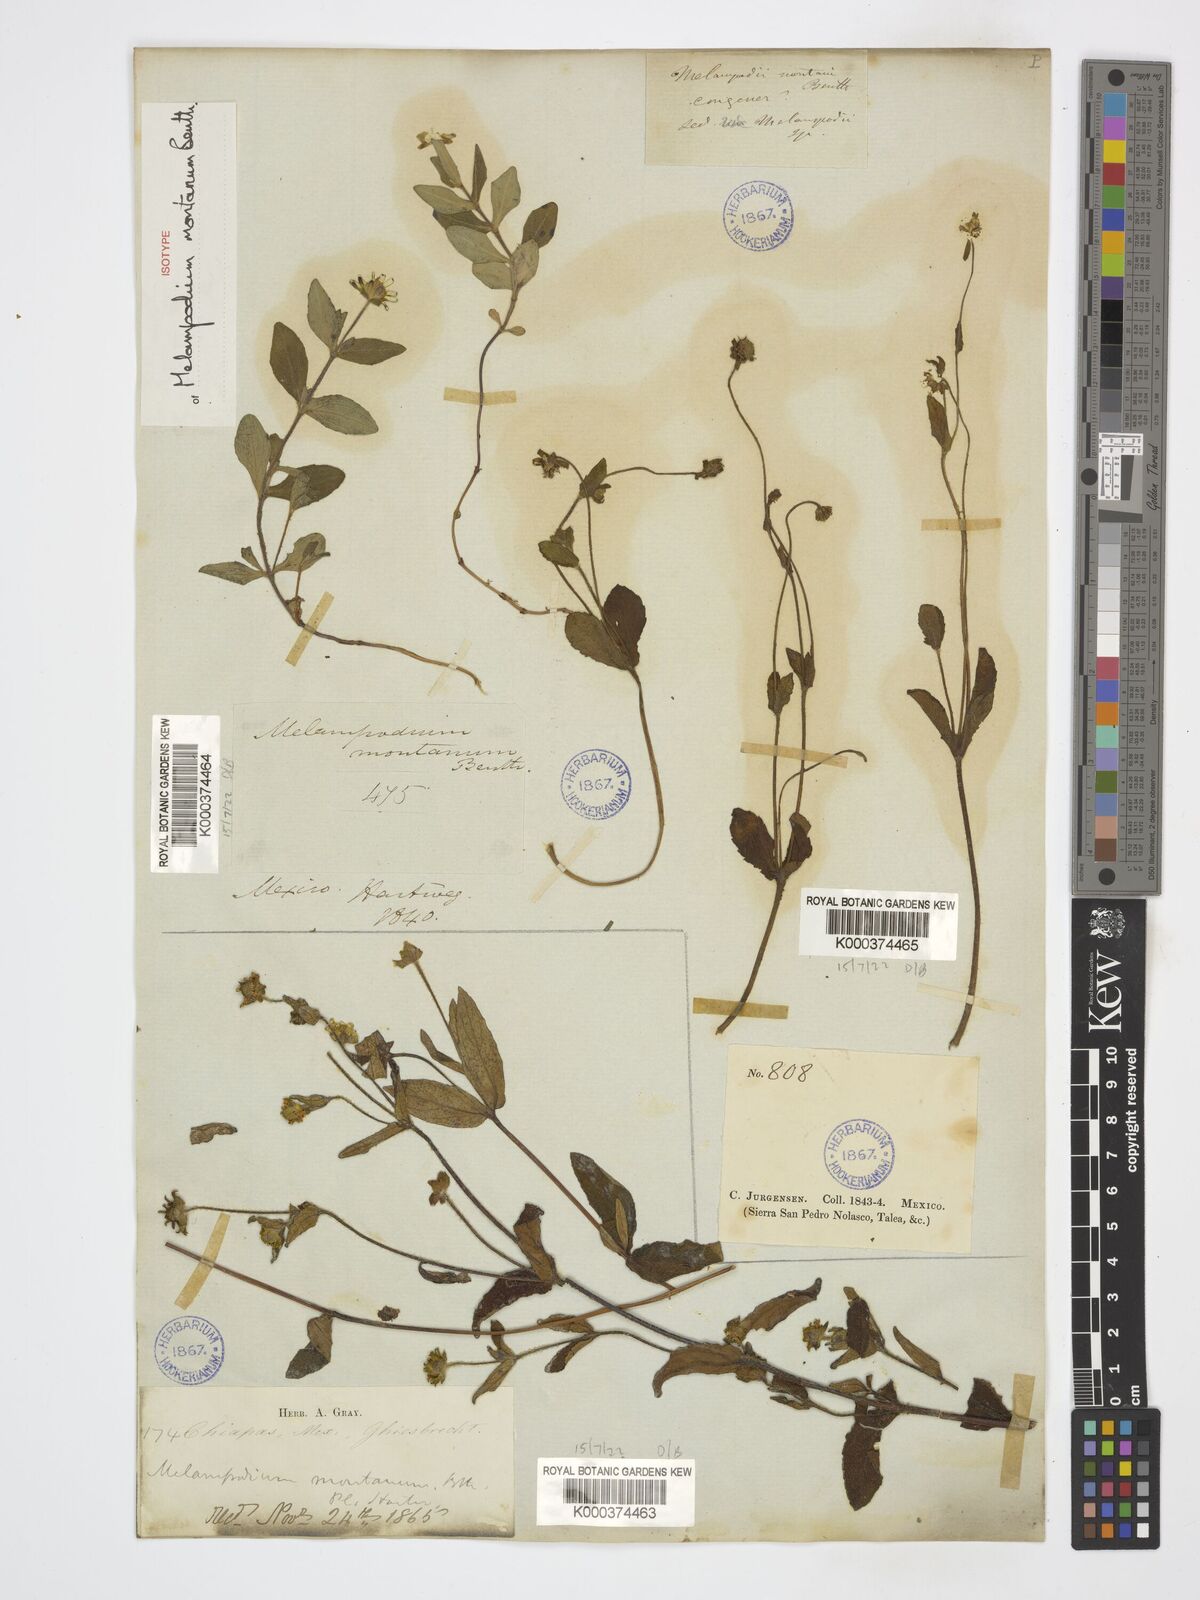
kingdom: Plantae
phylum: Tracheophyta
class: Magnoliopsida
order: Asterales
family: Asteraceae
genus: Melampodium
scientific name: Melampodium montanum
